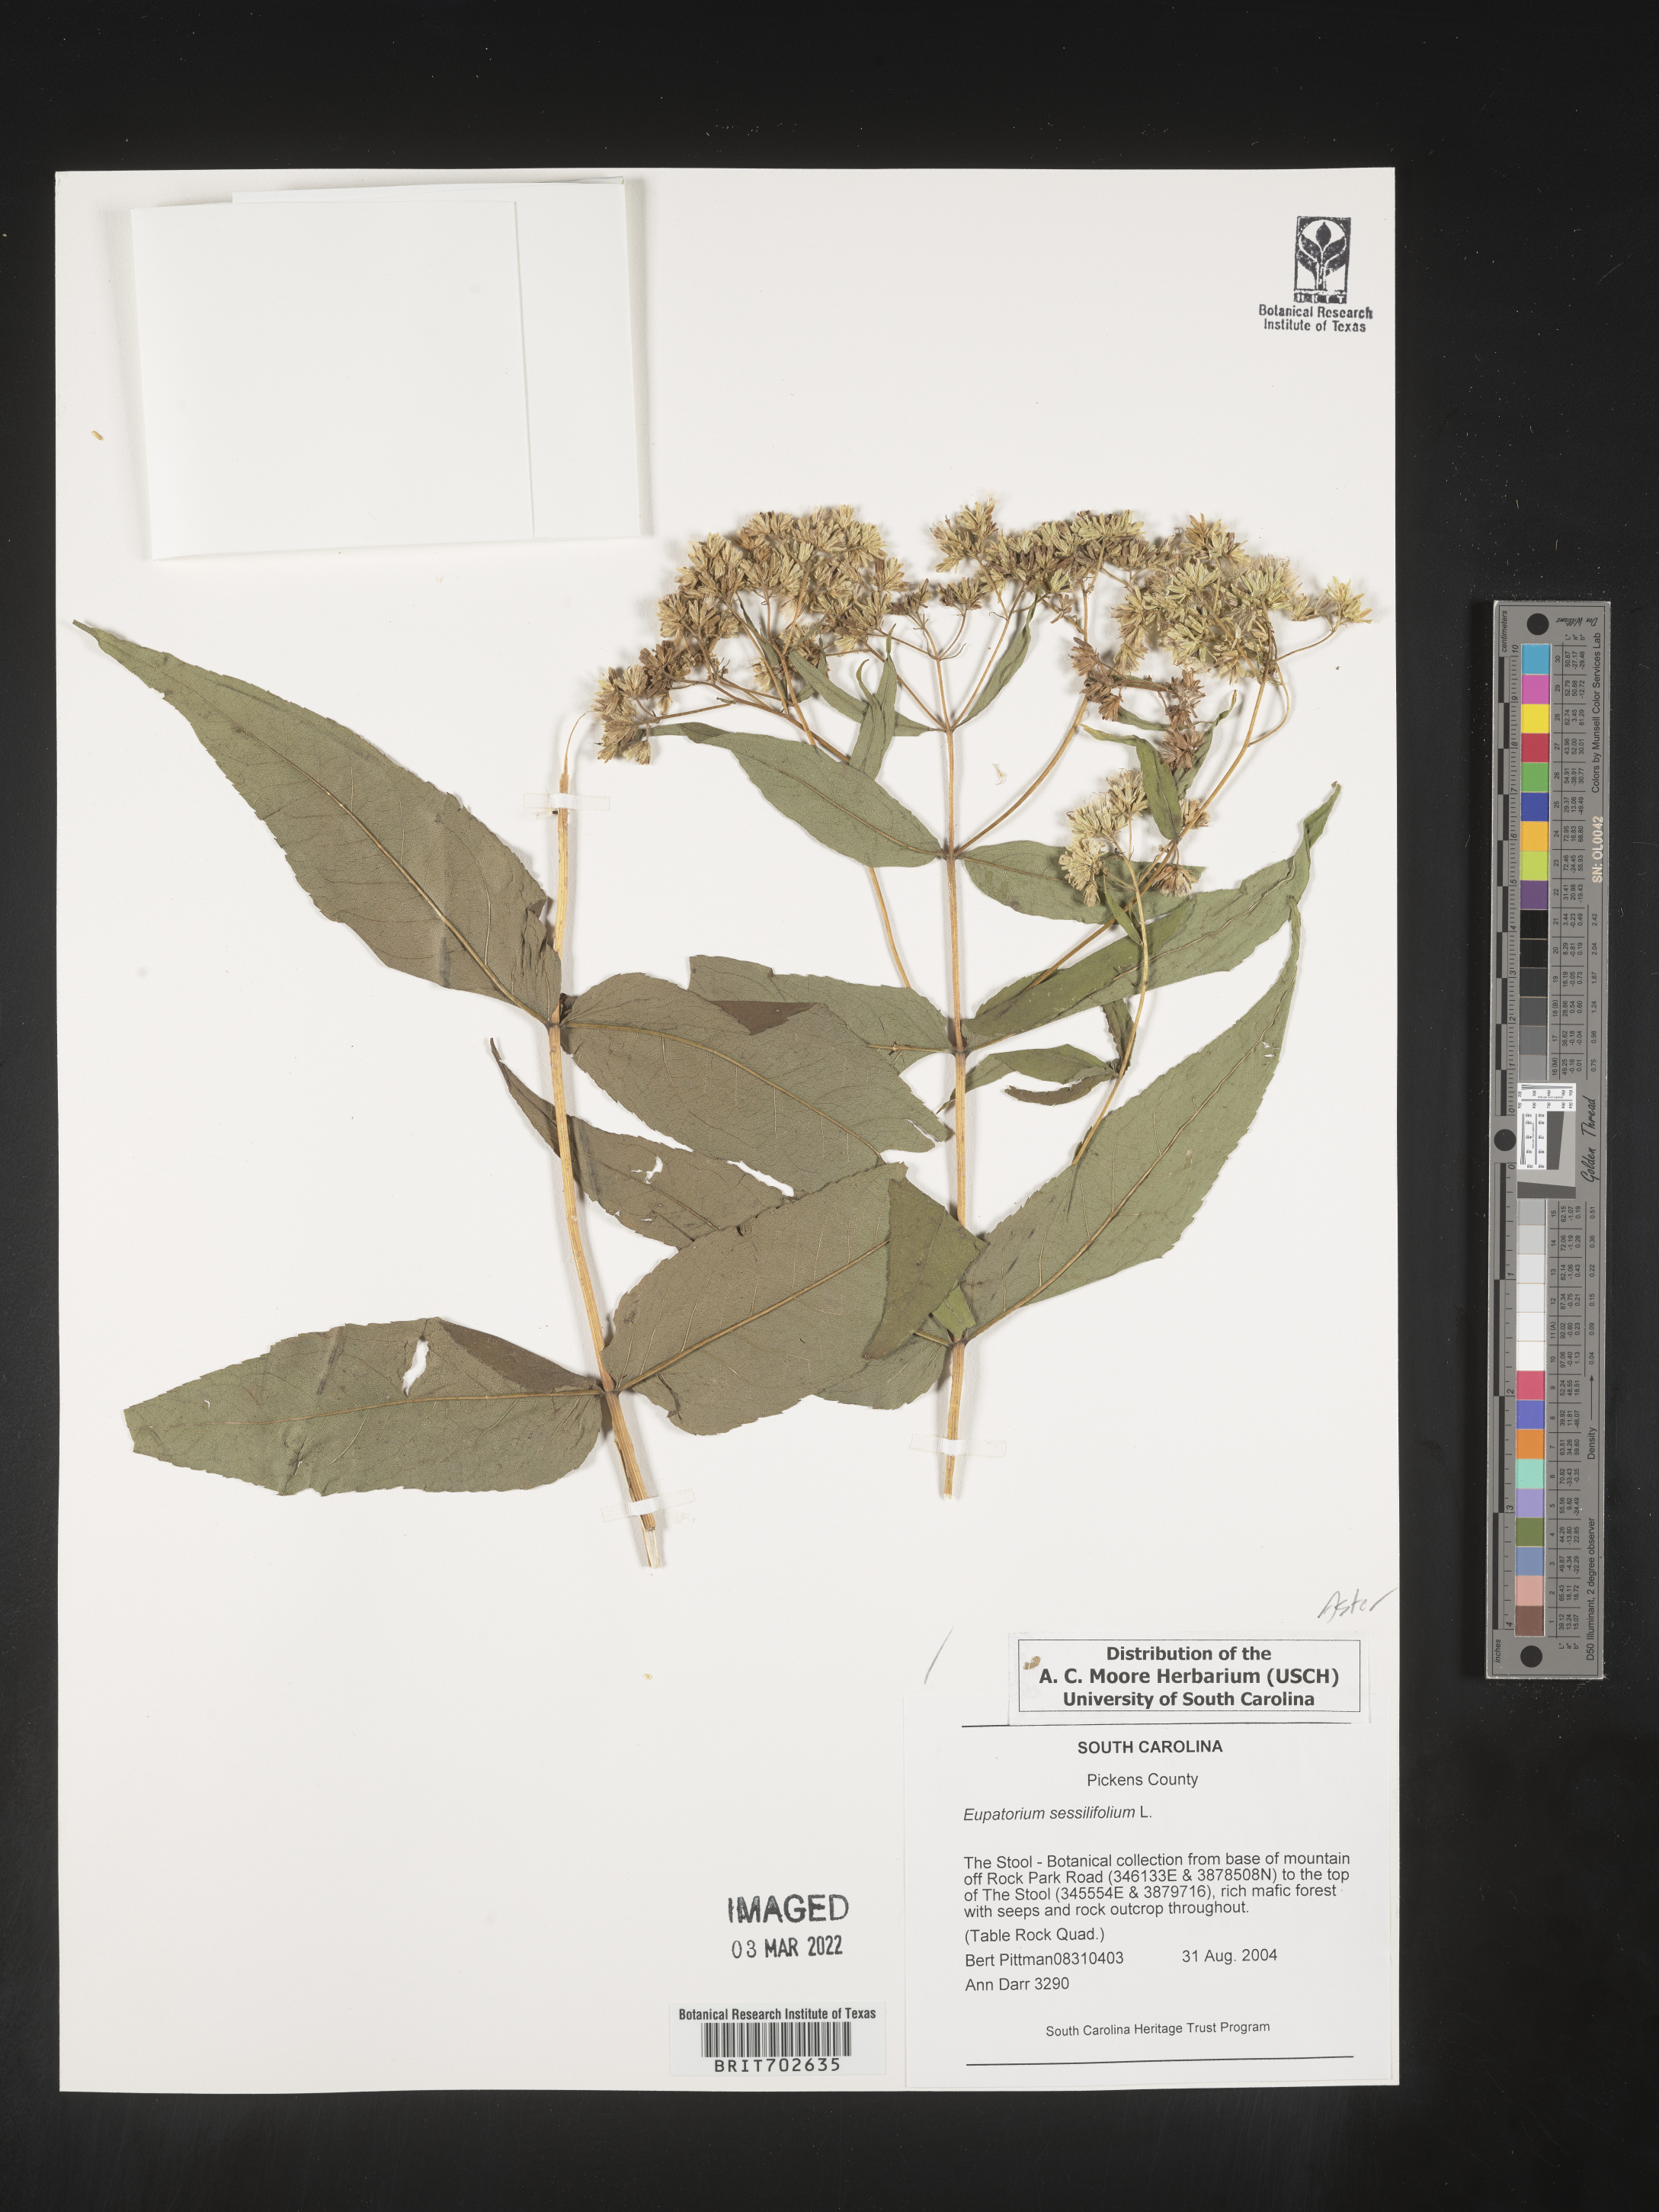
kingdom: Plantae
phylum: Tracheophyta
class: Magnoliopsida
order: Asterales
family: Asteraceae
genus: Eupatorium
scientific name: Eupatorium sessilifolium
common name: Upland boneset
